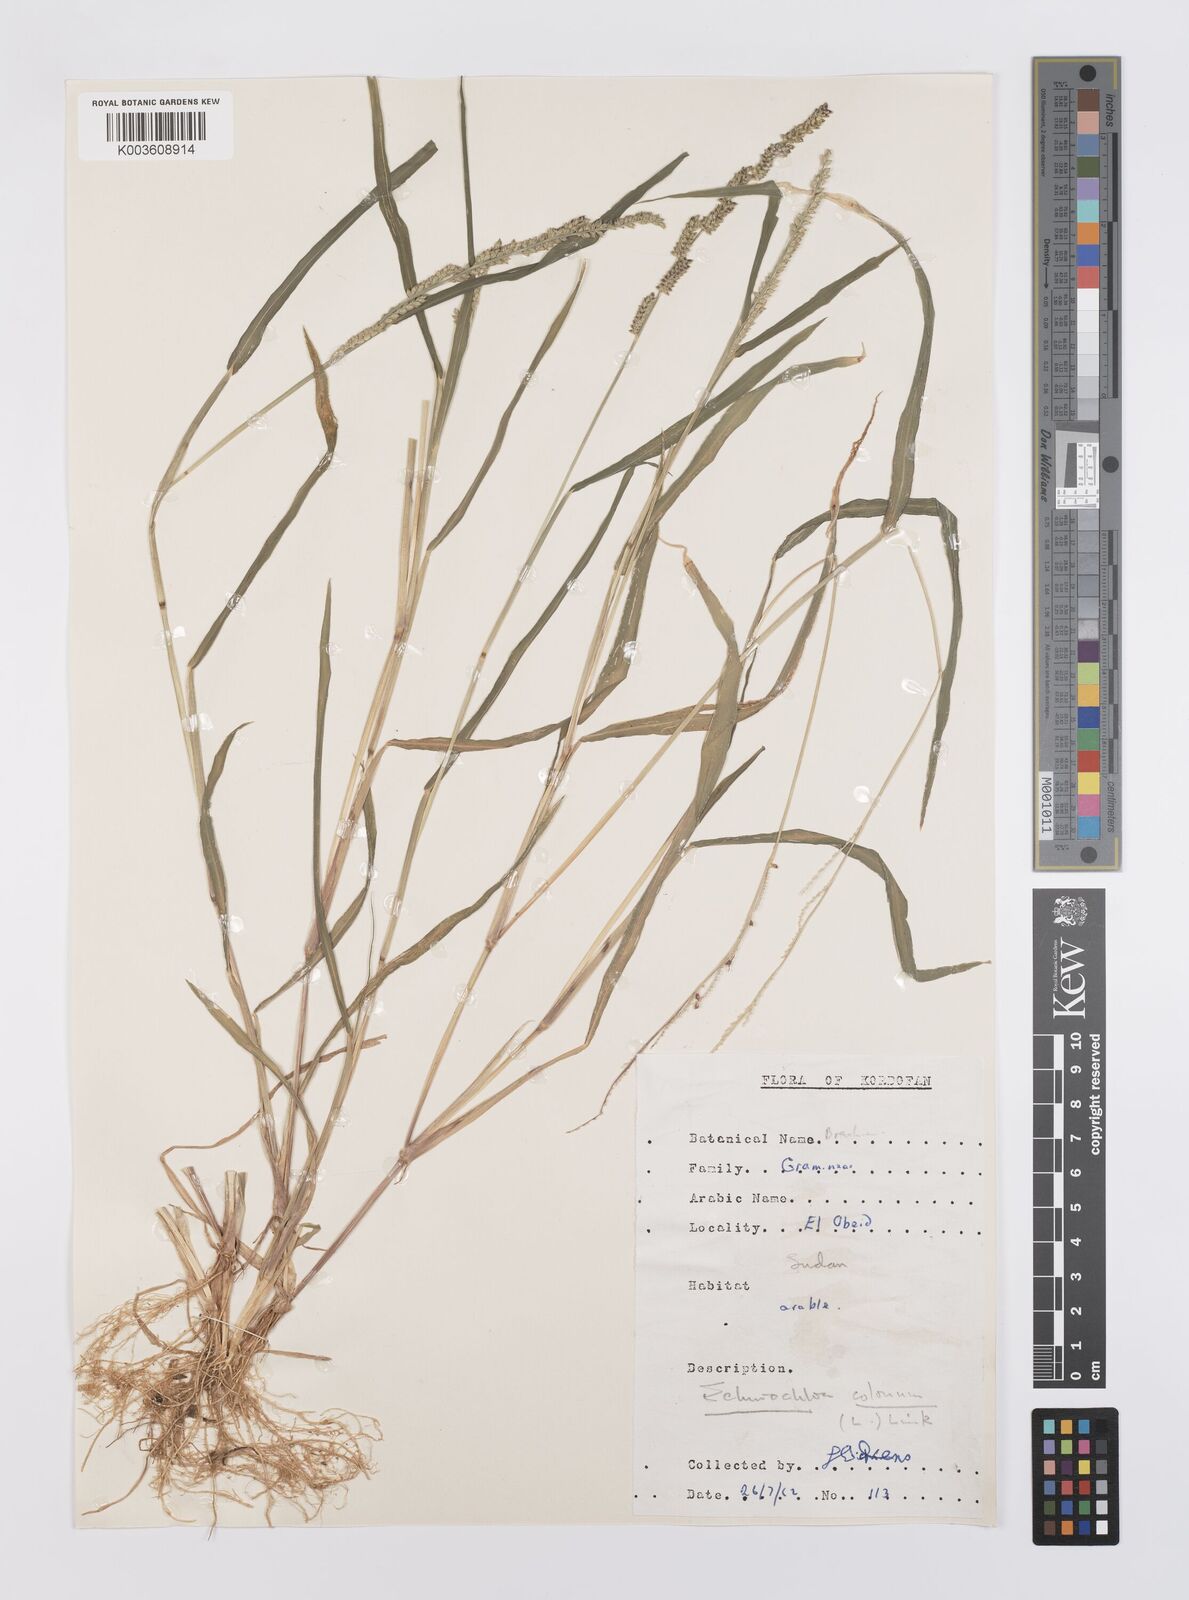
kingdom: Plantae
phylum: Tracheophyta
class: Liliopsida
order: Poales
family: Poaceae
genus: Echinochloa
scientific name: Echinochloa colonum
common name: Jungle rice
